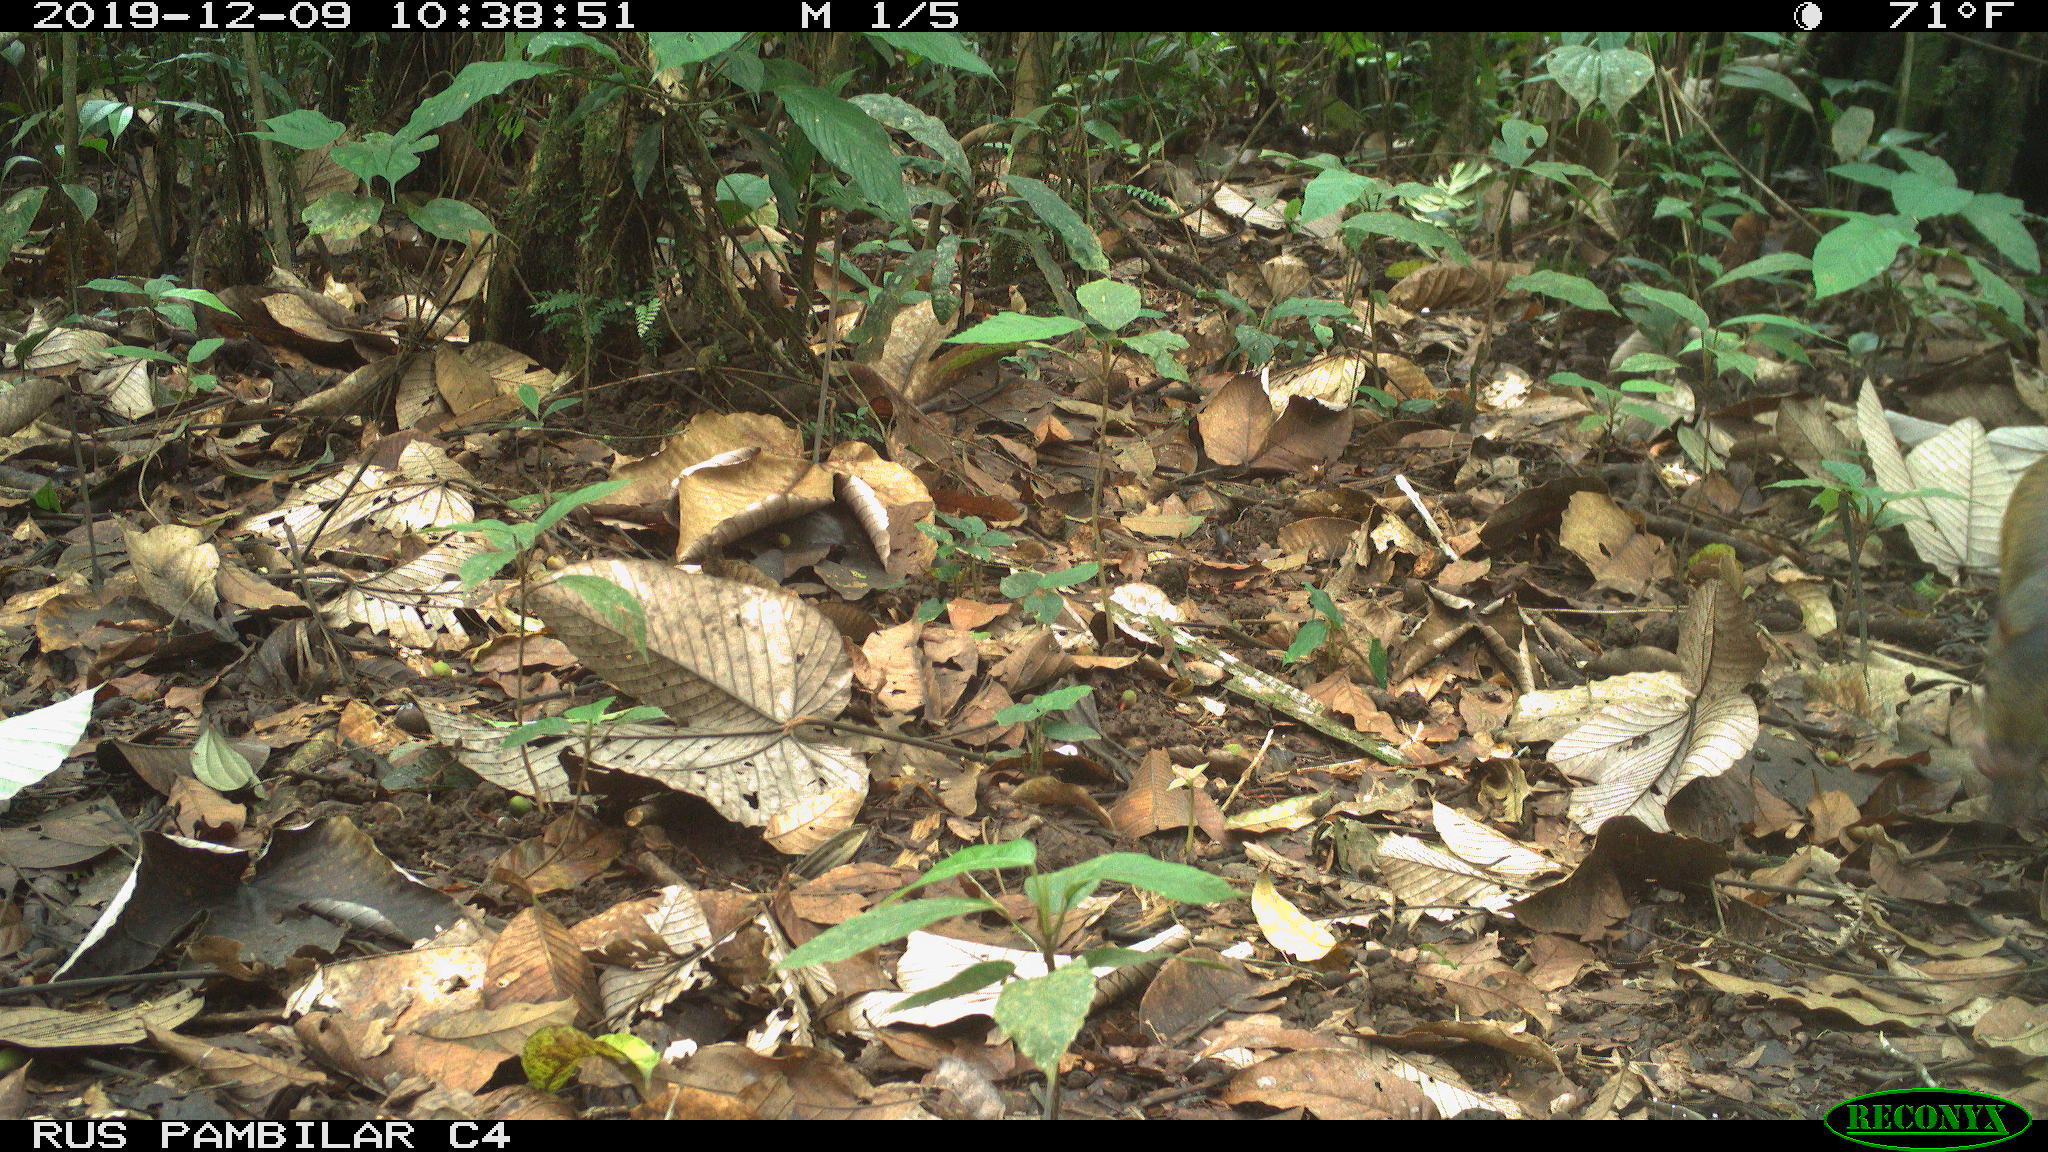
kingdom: Animalia
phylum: Chordata
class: Mammalia
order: Rodentia
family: Dasyproctidae
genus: Dasyprocta
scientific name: Dasyprocta punctata
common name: Central american agouti
